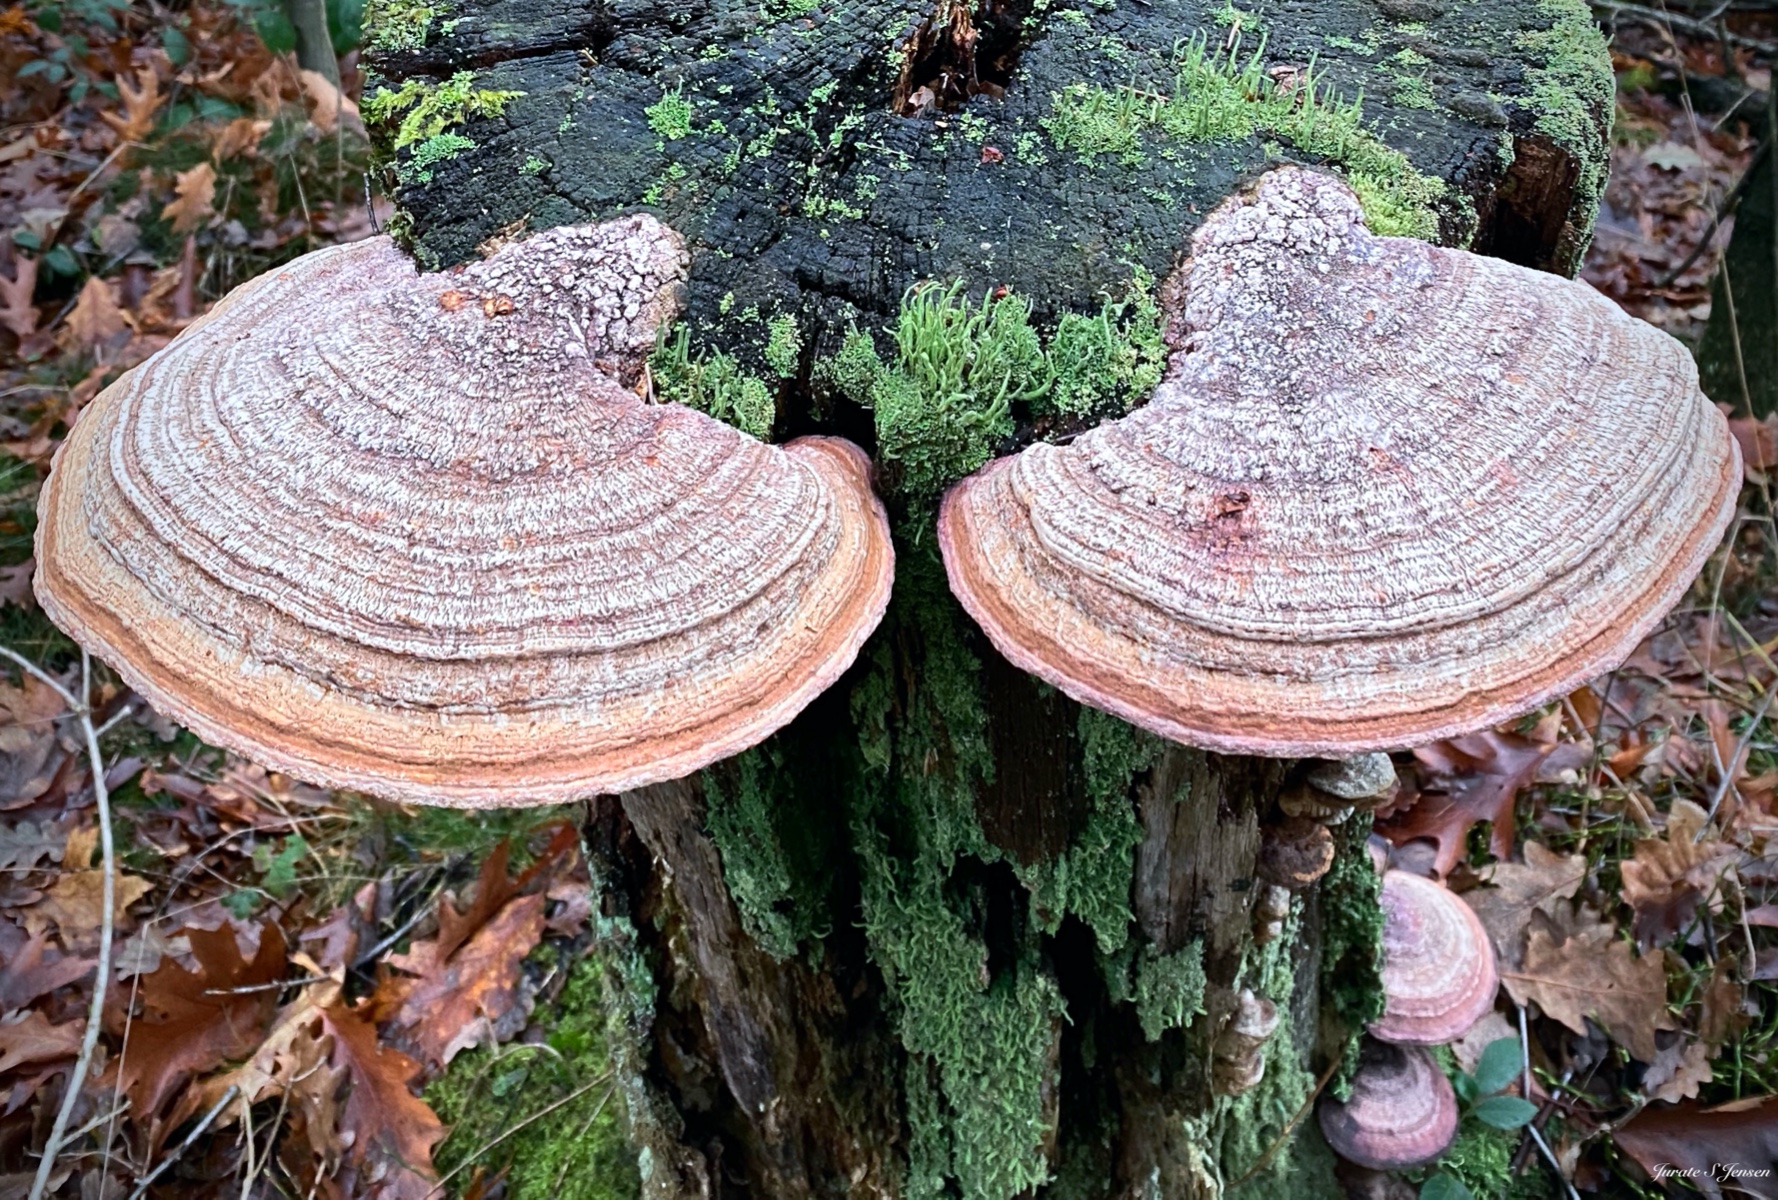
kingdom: Fungi
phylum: Basidiomycota
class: Agaricomycetes
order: Polyporales
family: Fomitopsidaceae
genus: Daedalea
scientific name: Daedalea quercina
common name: ege-labyrintsvamp
